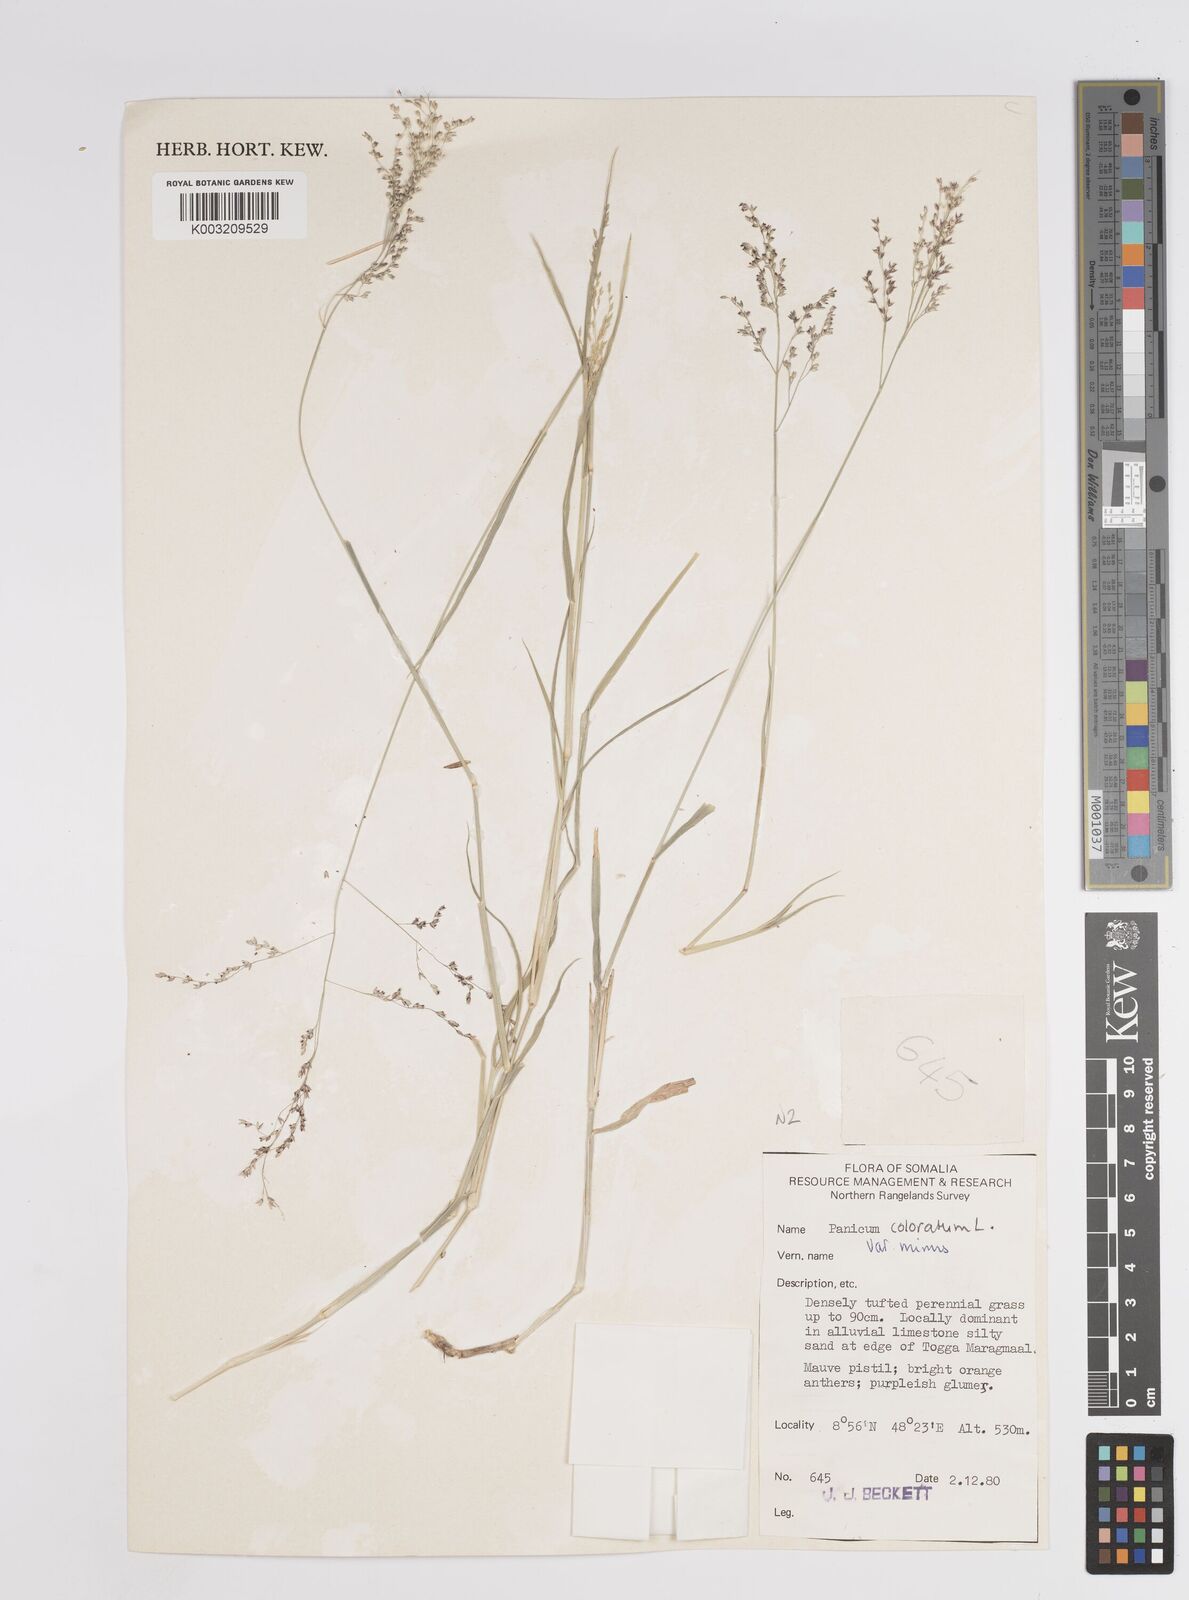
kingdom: Plantae
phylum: Tracheophyta
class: Liliopsida
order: Poales
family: Poaceae
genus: Panicum
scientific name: Panicum coloratum
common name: Kleingrass
